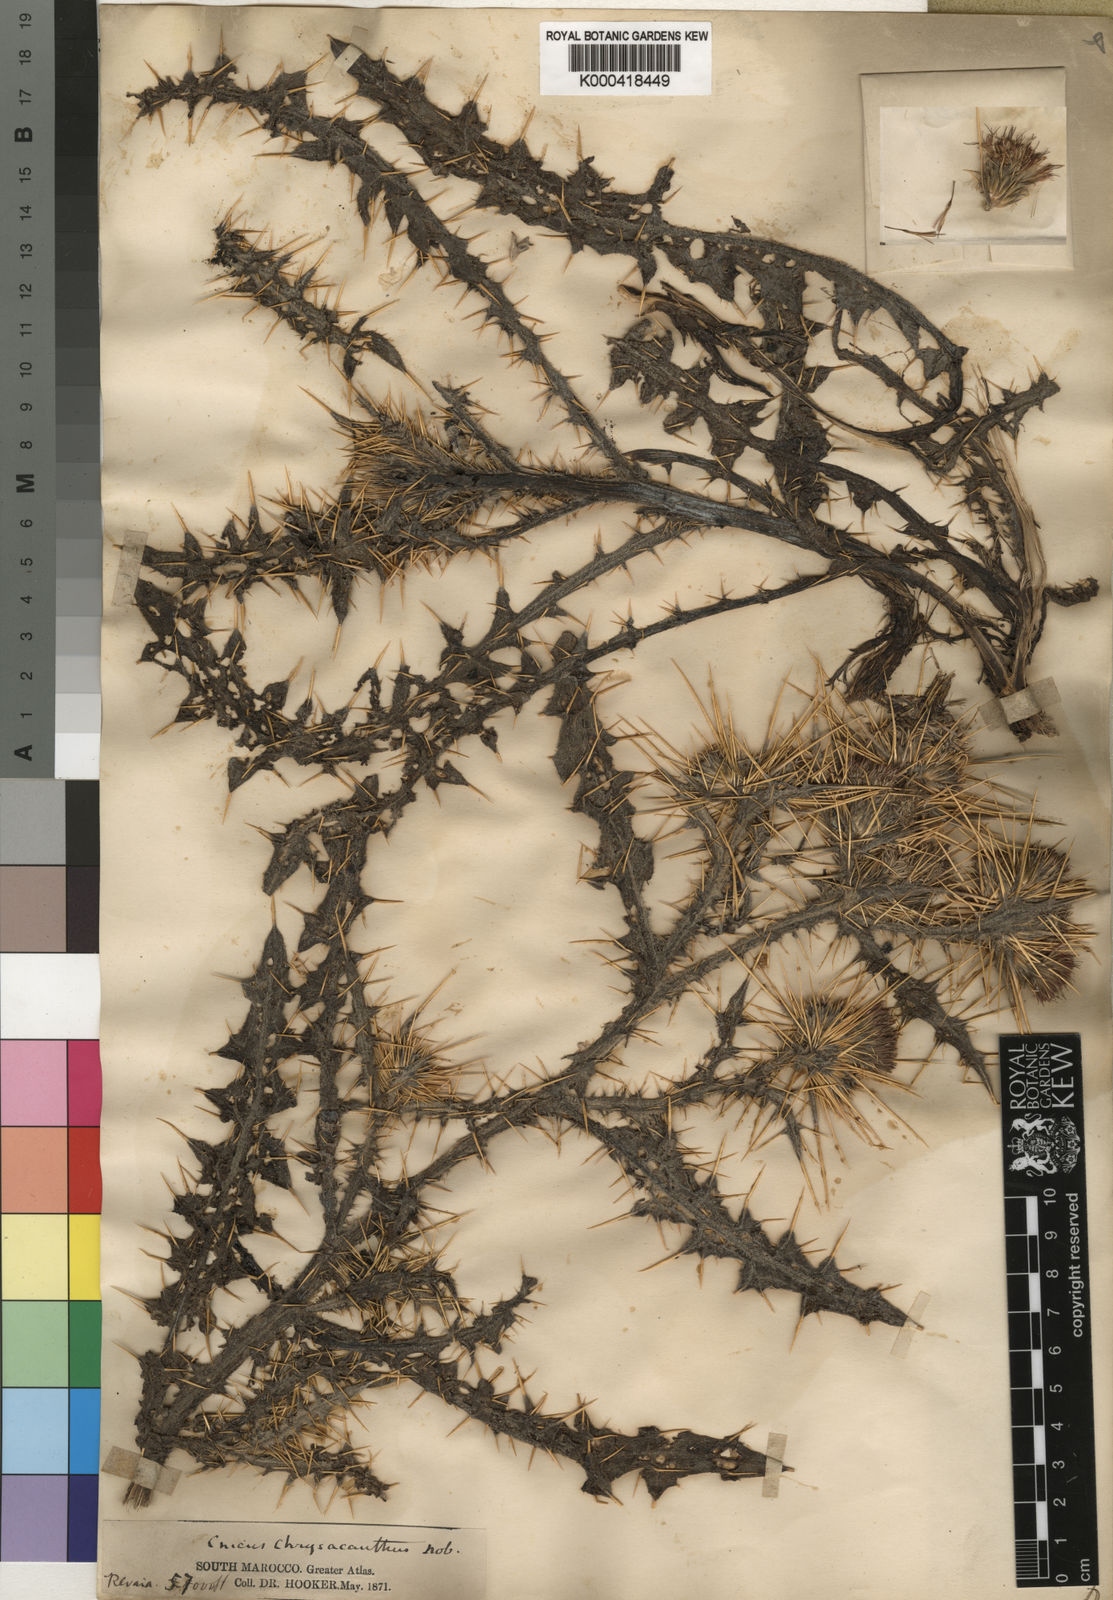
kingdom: Plantae
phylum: Tracheophyta
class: Magnoliopsida
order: Asterales
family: Asteraceae
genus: Cirsium
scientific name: Cirsium
